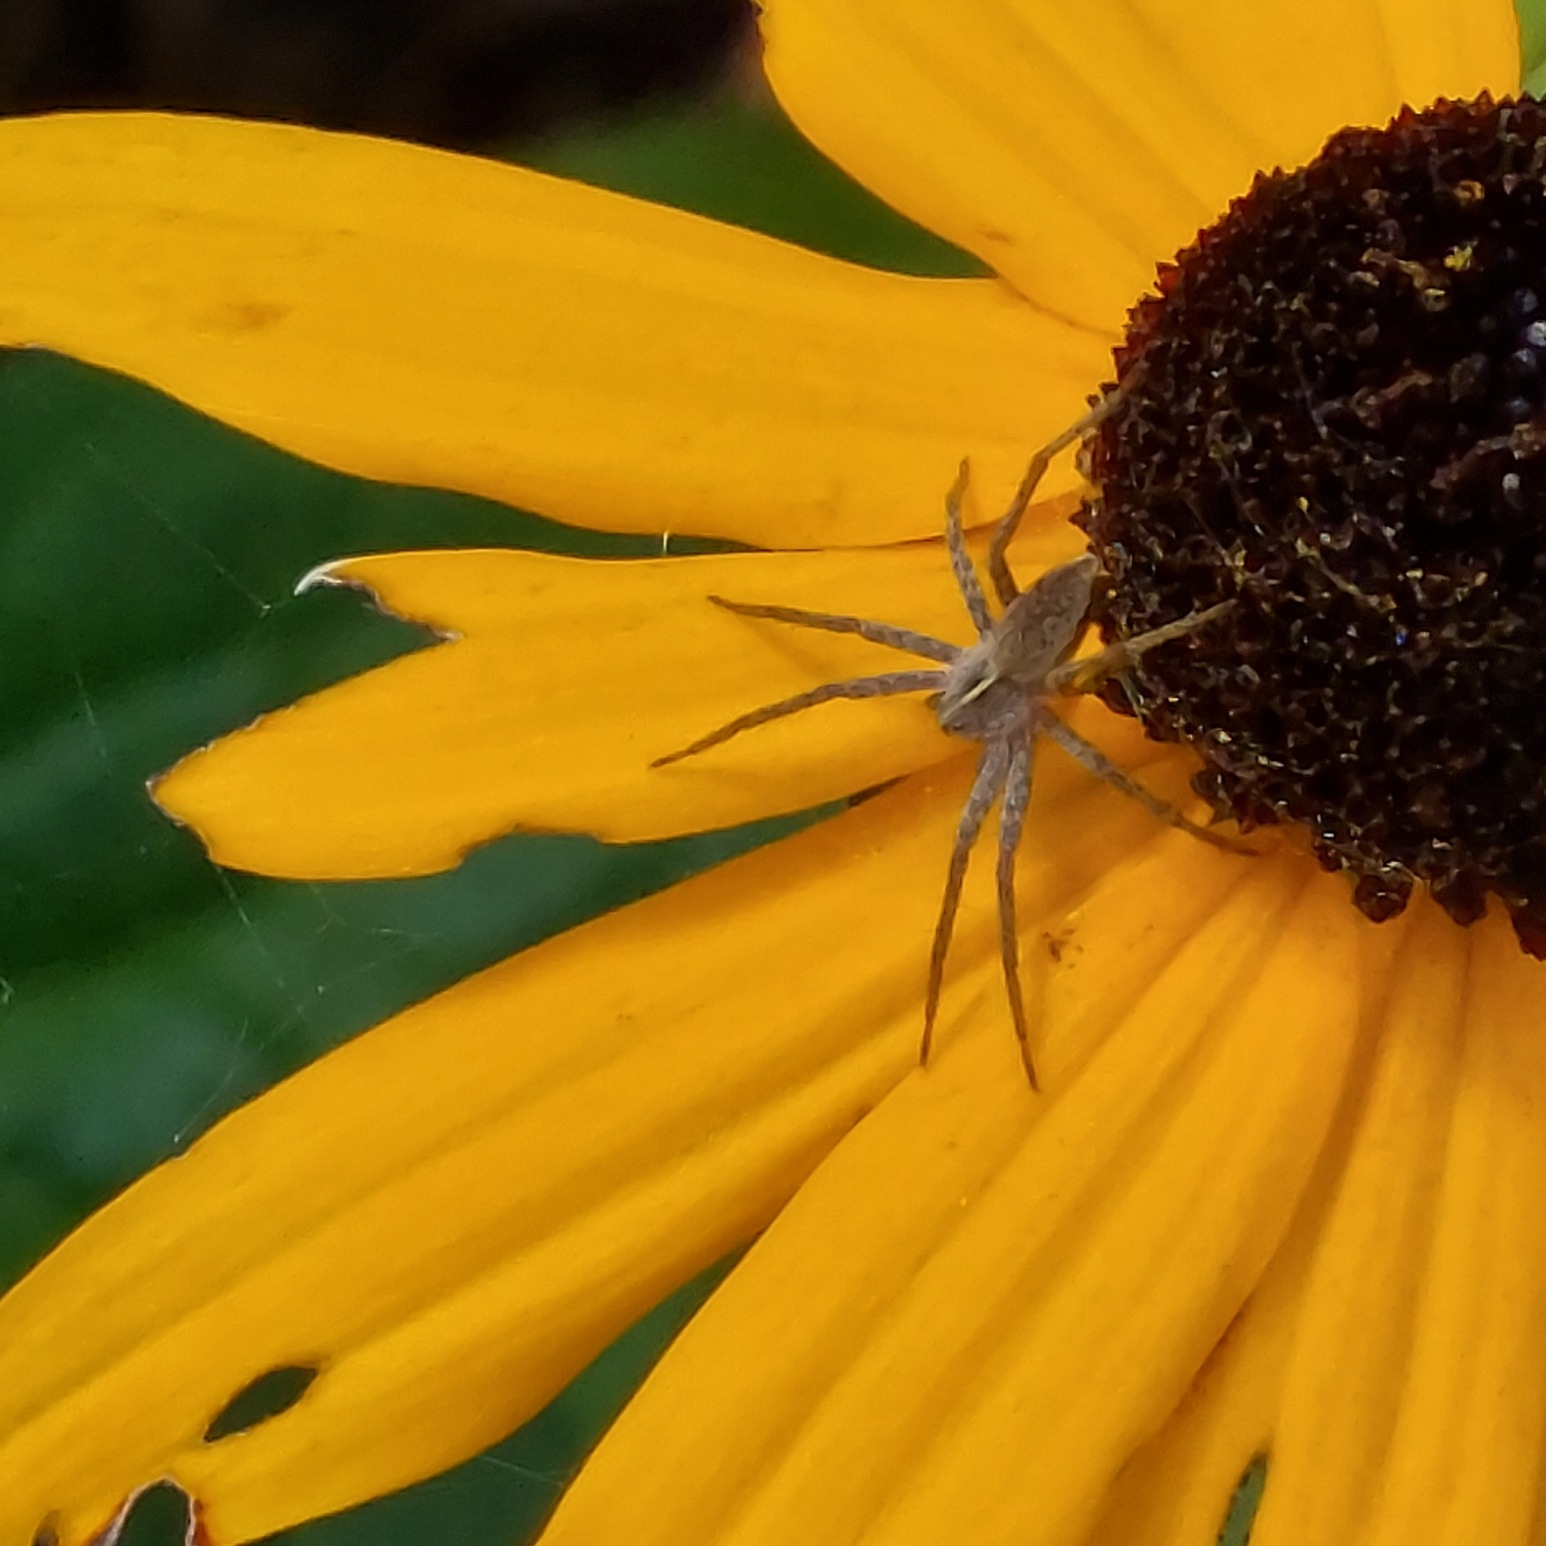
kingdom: Animalia
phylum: Arthropoda
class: Arachnida
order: Araneae
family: Pisauridae
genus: Pisaura
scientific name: Pisaura mirabilis
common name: Almindelig rovedderkop
